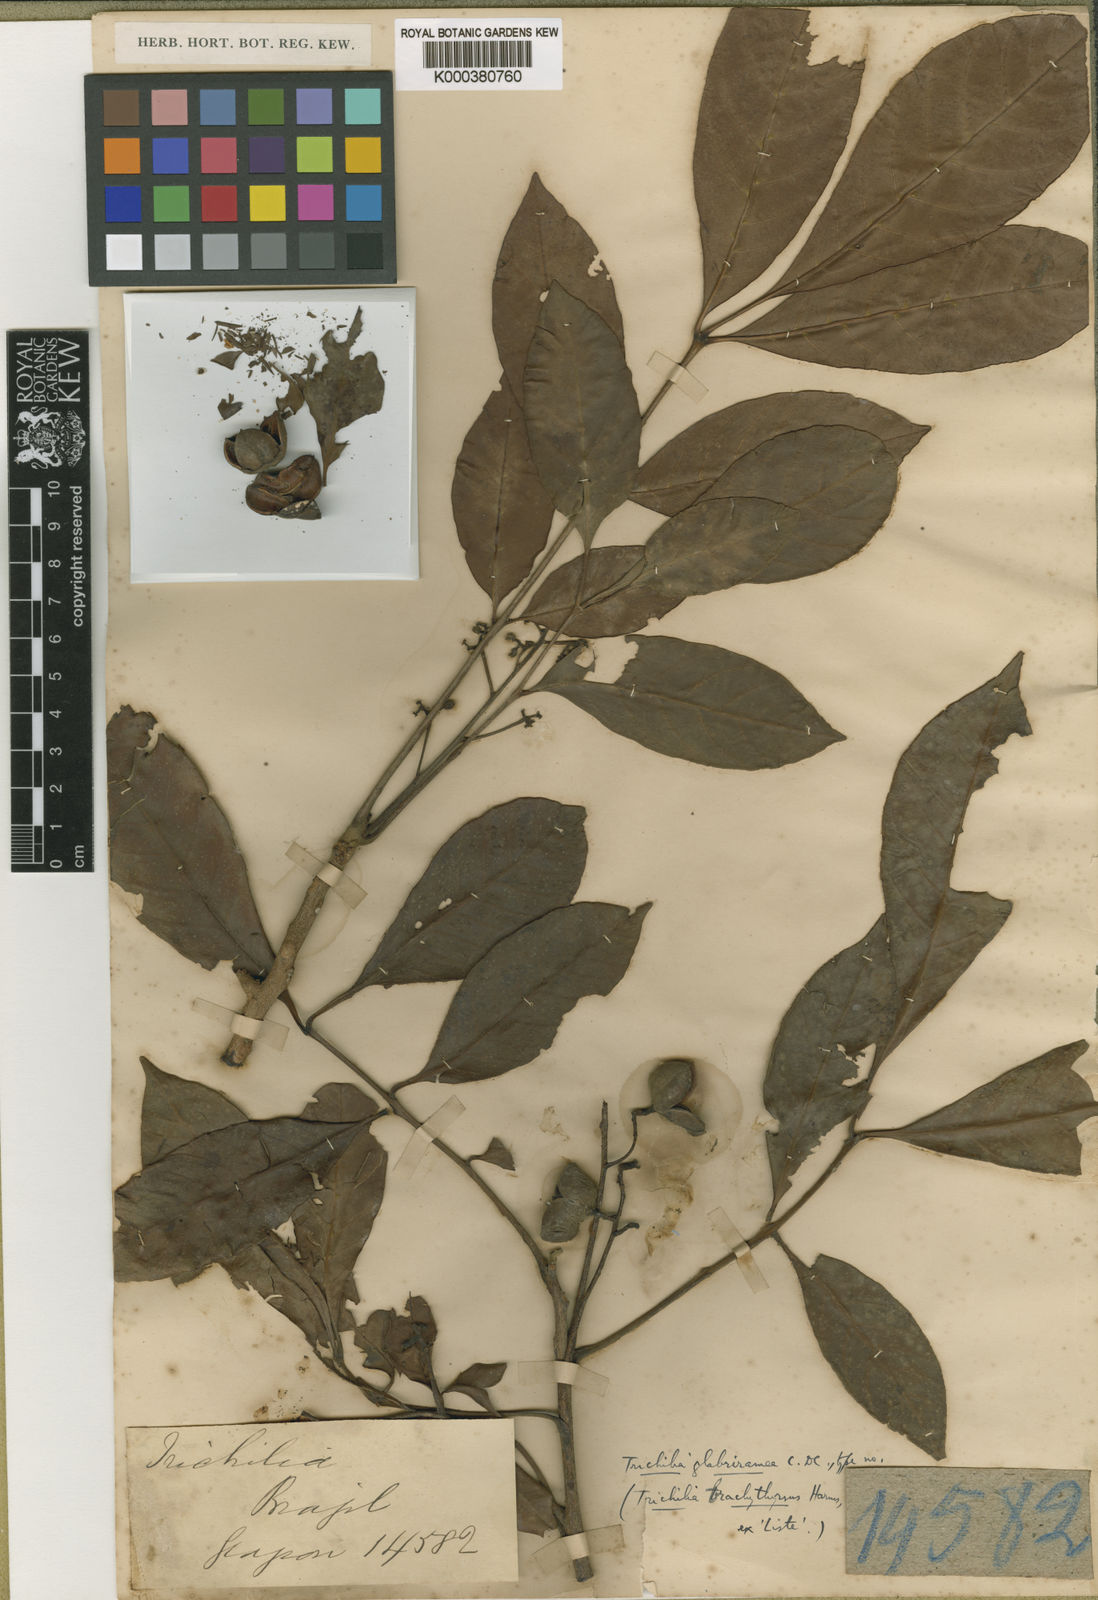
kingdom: Plantae
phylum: Tracheophyta
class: Magnoliopsida
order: Sapindales
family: Meliaceae
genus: Trichilia
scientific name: Trichilia pallens
